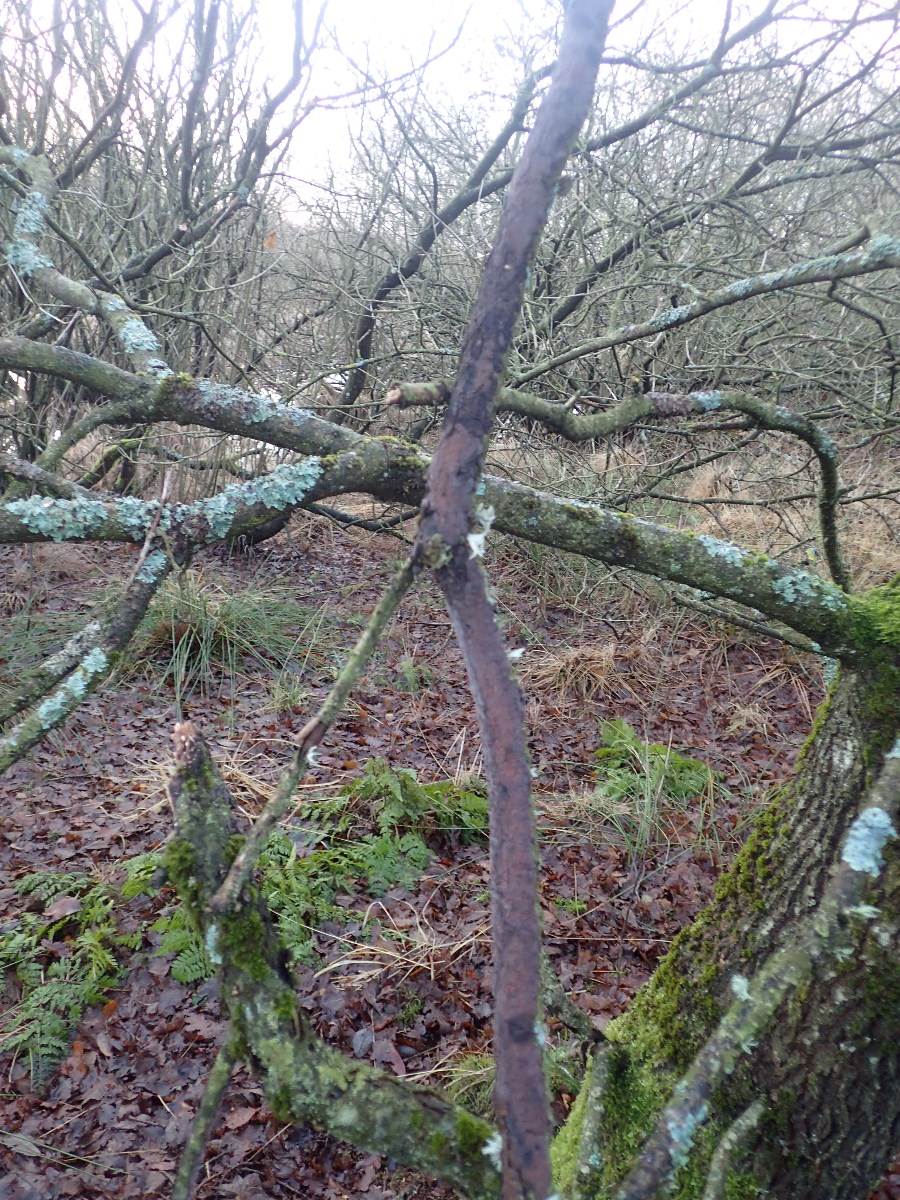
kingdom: Fungi
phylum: Basidiomycota
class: Agaricomycetes
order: Russulales
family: Peniophoraceae
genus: Peniophora
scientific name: Peniophora quercina
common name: ege-voksskind
